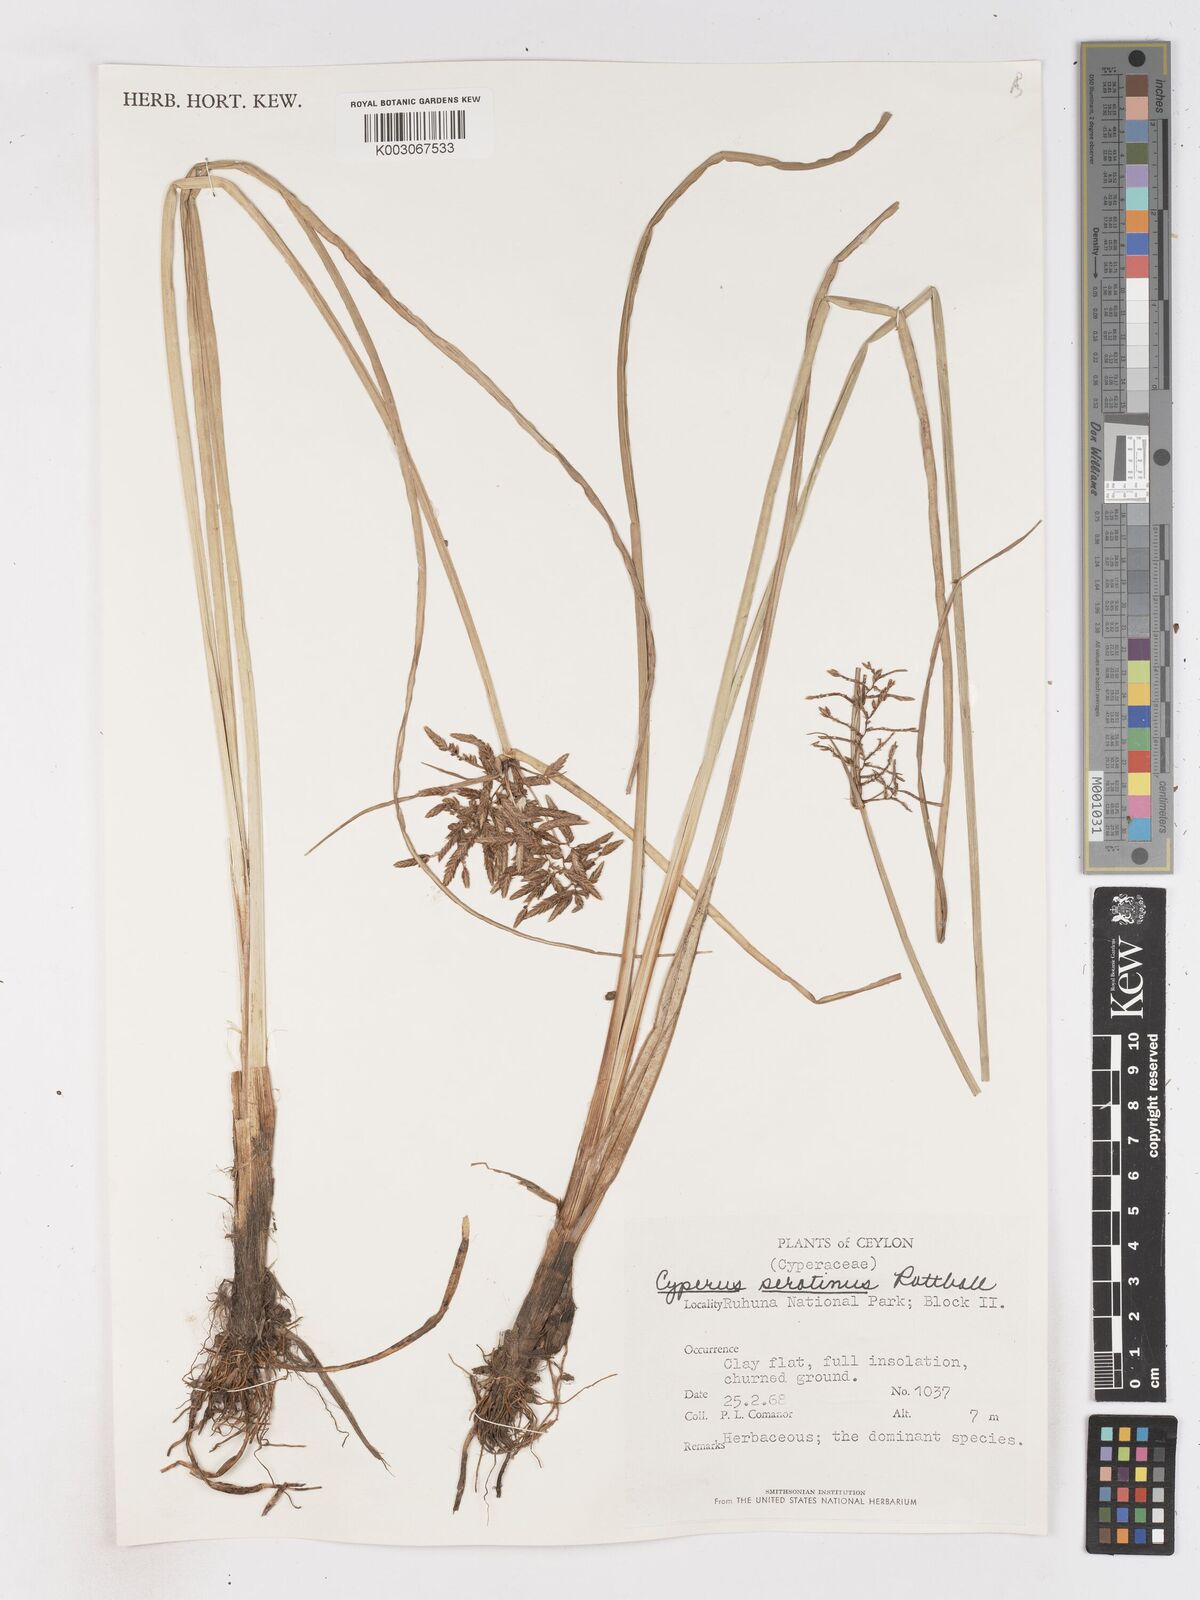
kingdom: Plantae
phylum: Tracheophyta
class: Liliopsida
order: Poales
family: Cyperaceae
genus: Cyperus
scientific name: Cyperus serotinus
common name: Tidalmarsh flatsedge
